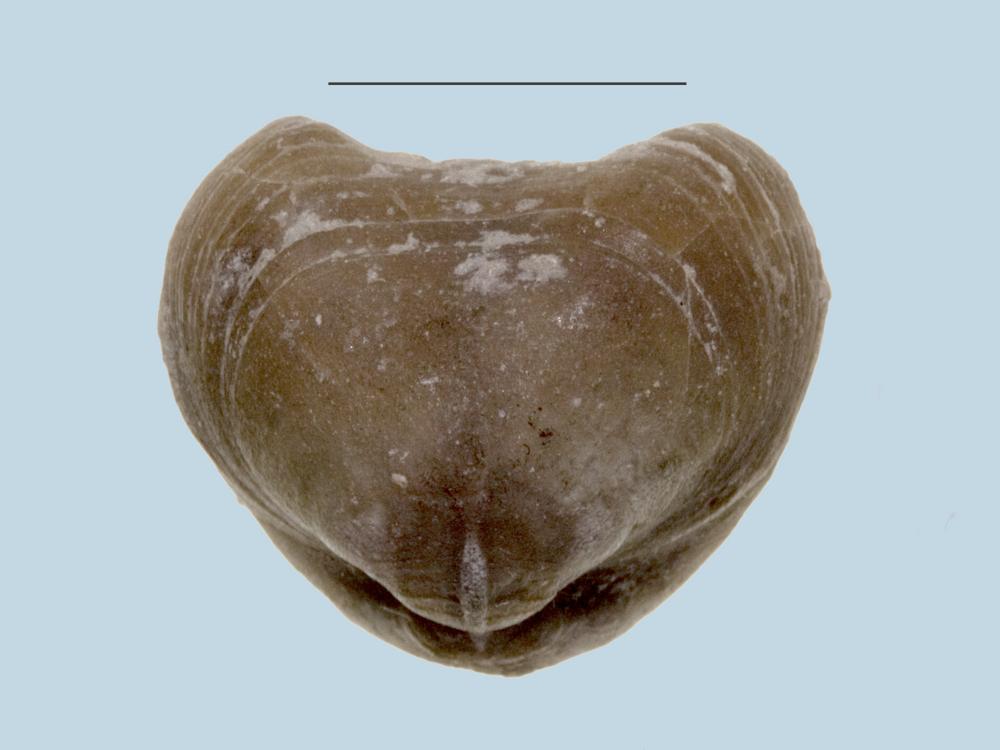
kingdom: Animalia
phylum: Brachiopoda
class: Rhynchonellata
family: Porambonitidae
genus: Porambonites
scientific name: Porambonites
